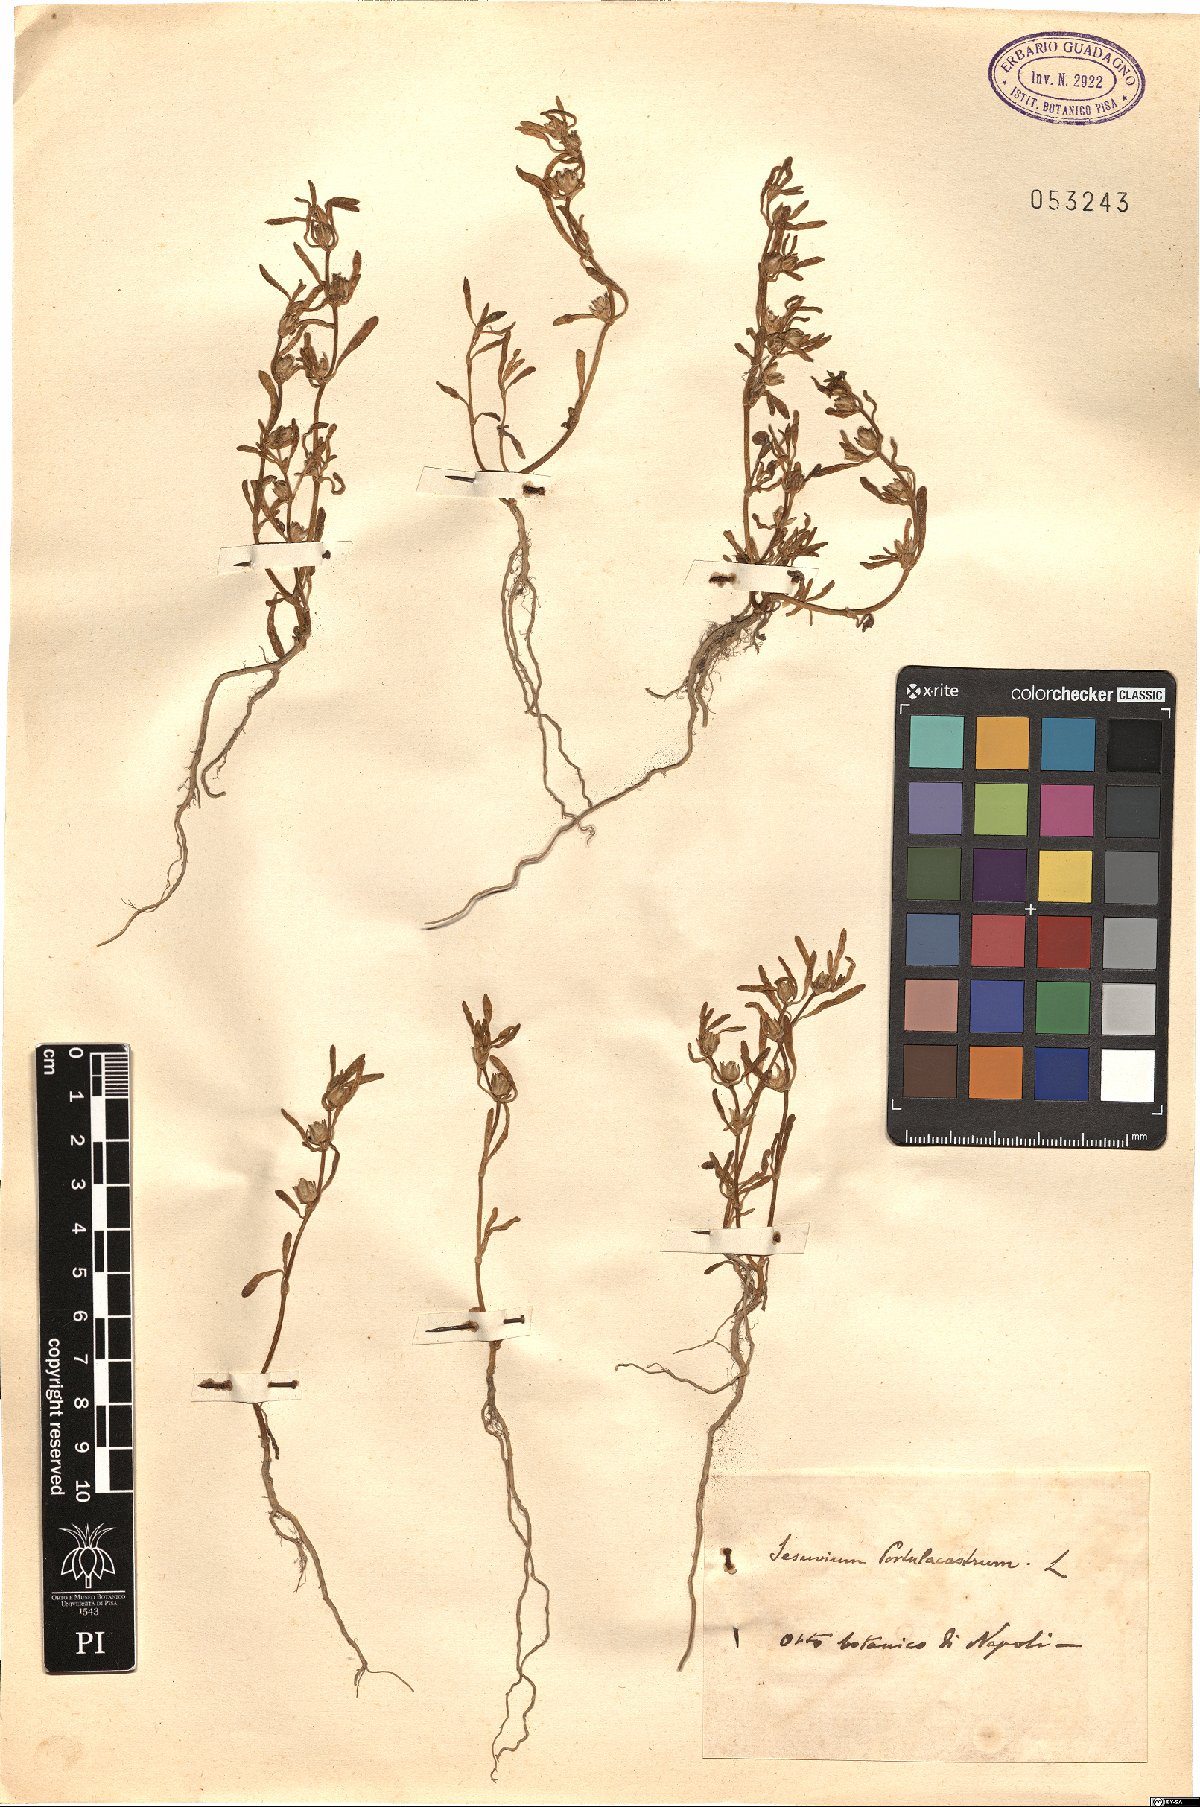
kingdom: Plantae
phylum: Tracheophyta
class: Magnoliopsida
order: Caryophyllales
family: Aizoaceae
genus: Sesuvium
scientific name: Sesuvium portulacastrum
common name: Sea-purslane
